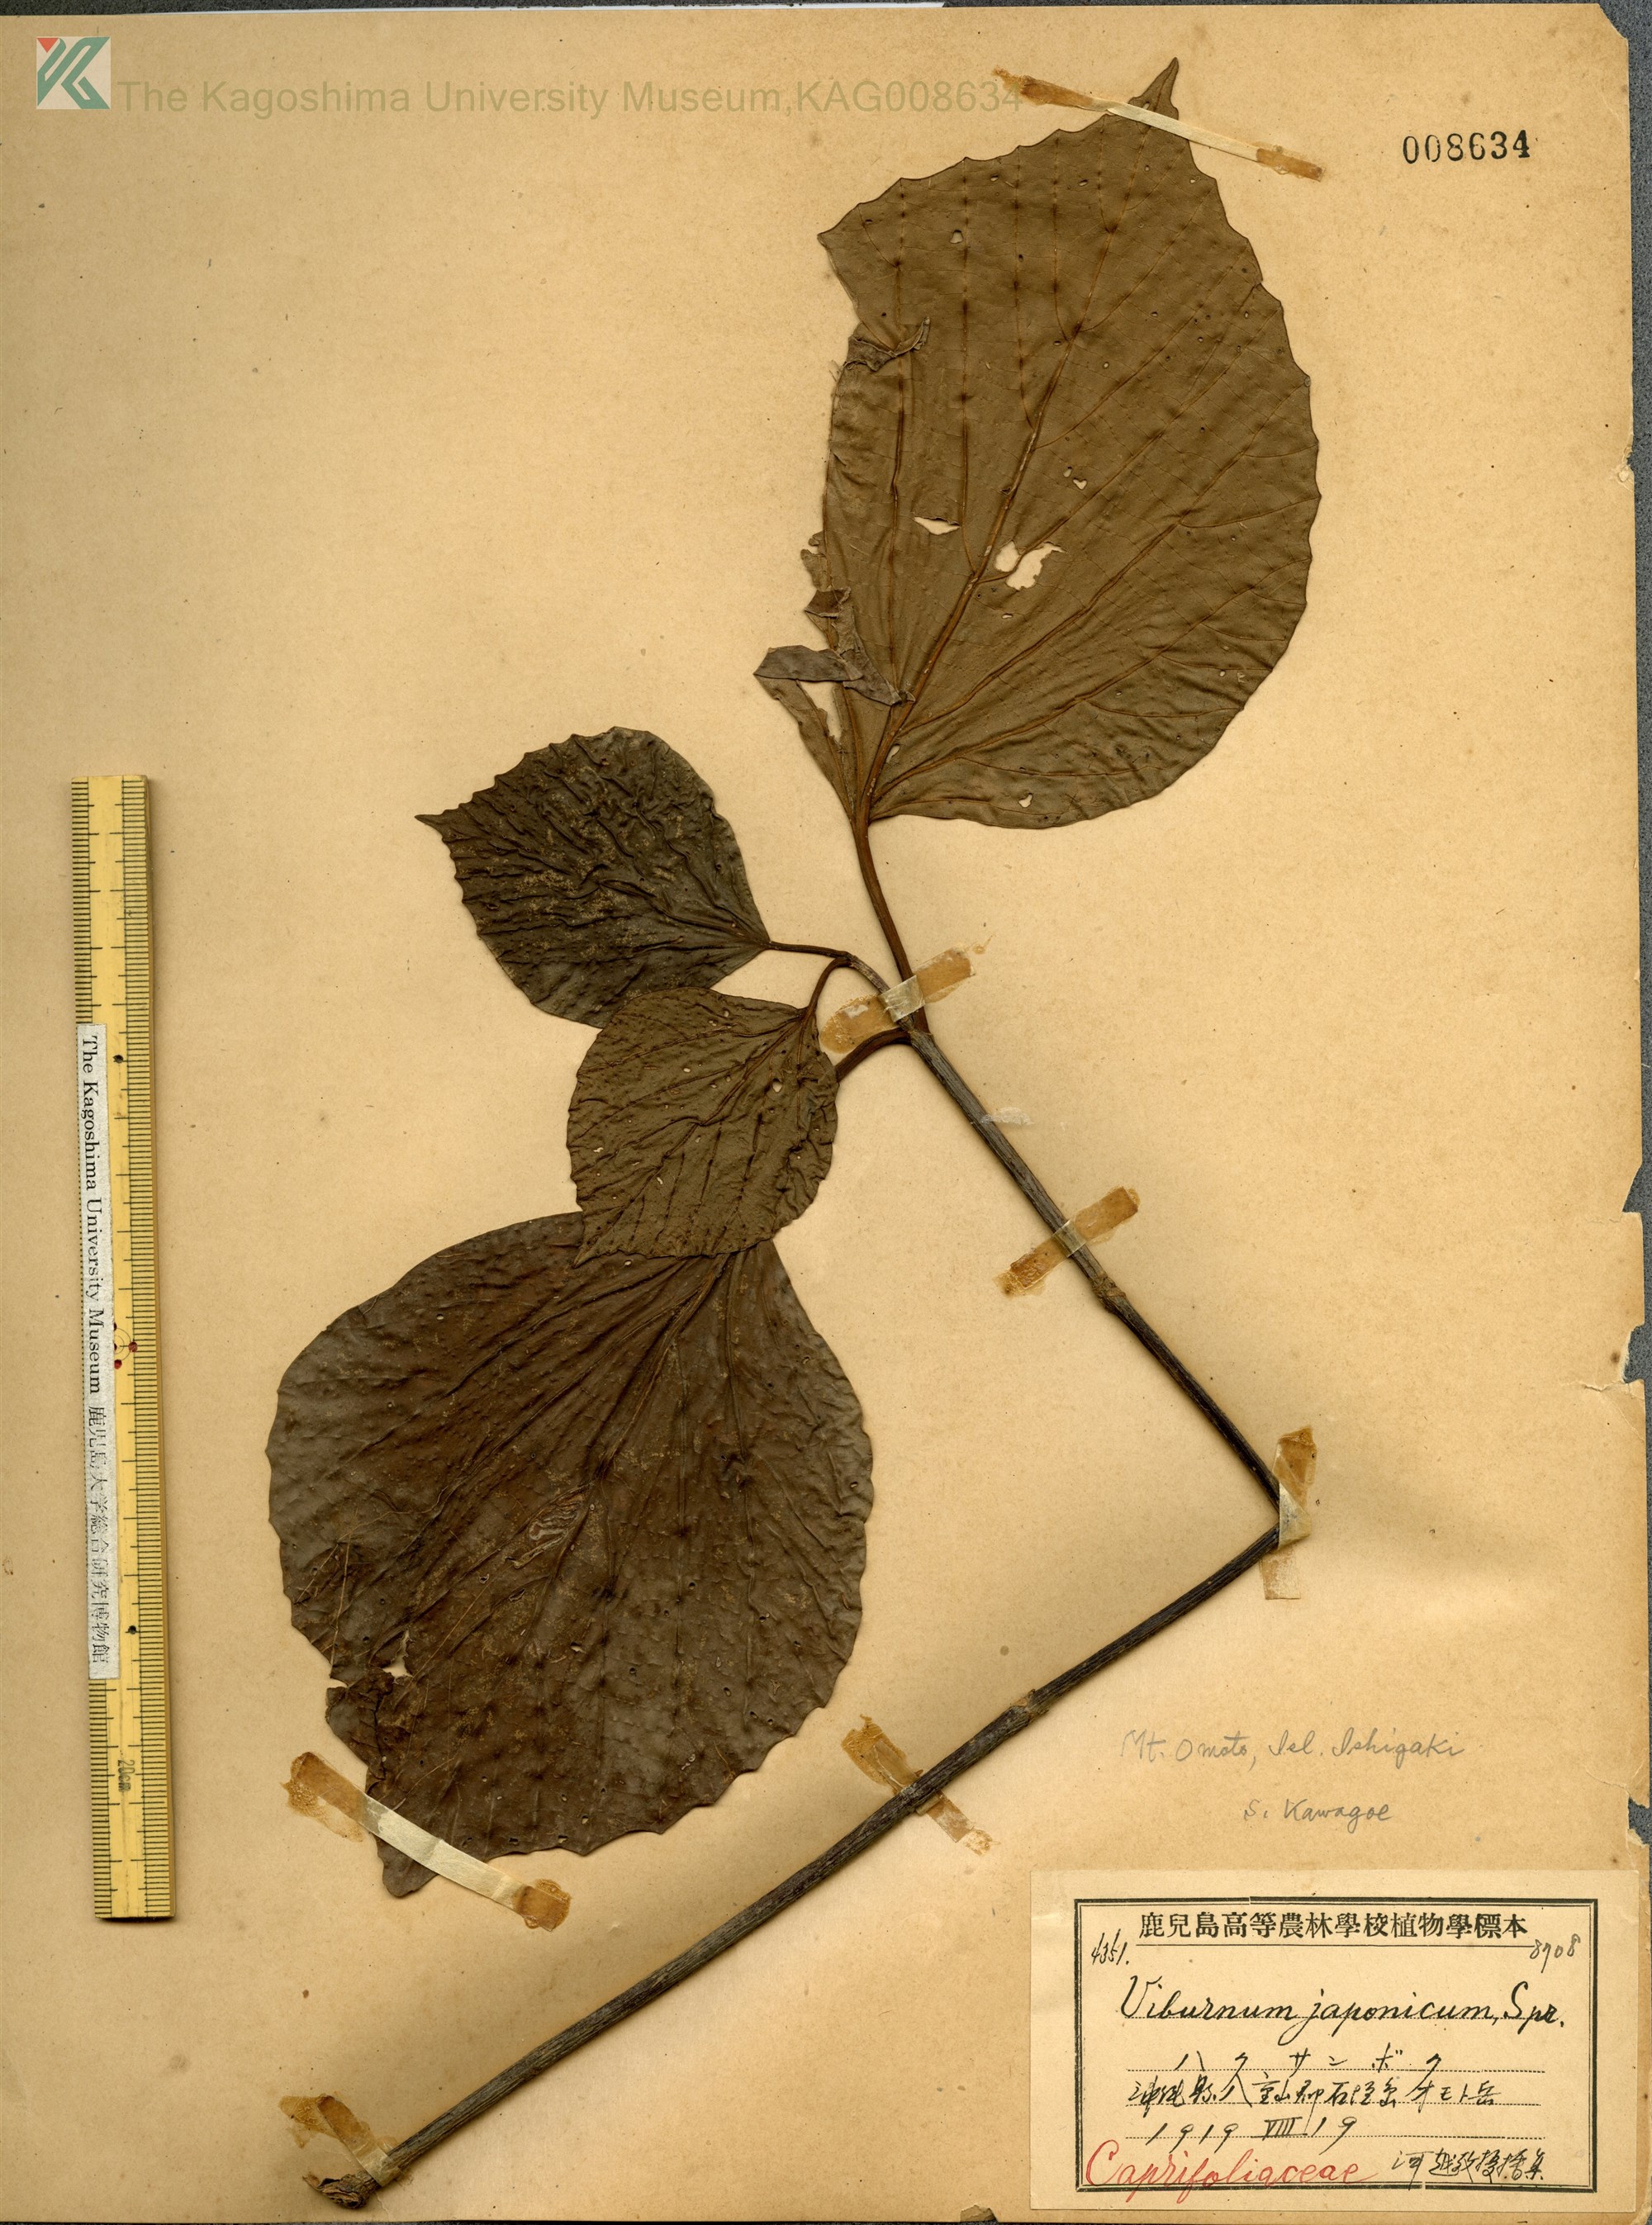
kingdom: Plantae
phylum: Tracheophyta
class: Magnoliopsida
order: Dipsacales
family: Viburnaceae
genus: Viburnum
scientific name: Viburnum japonicum
